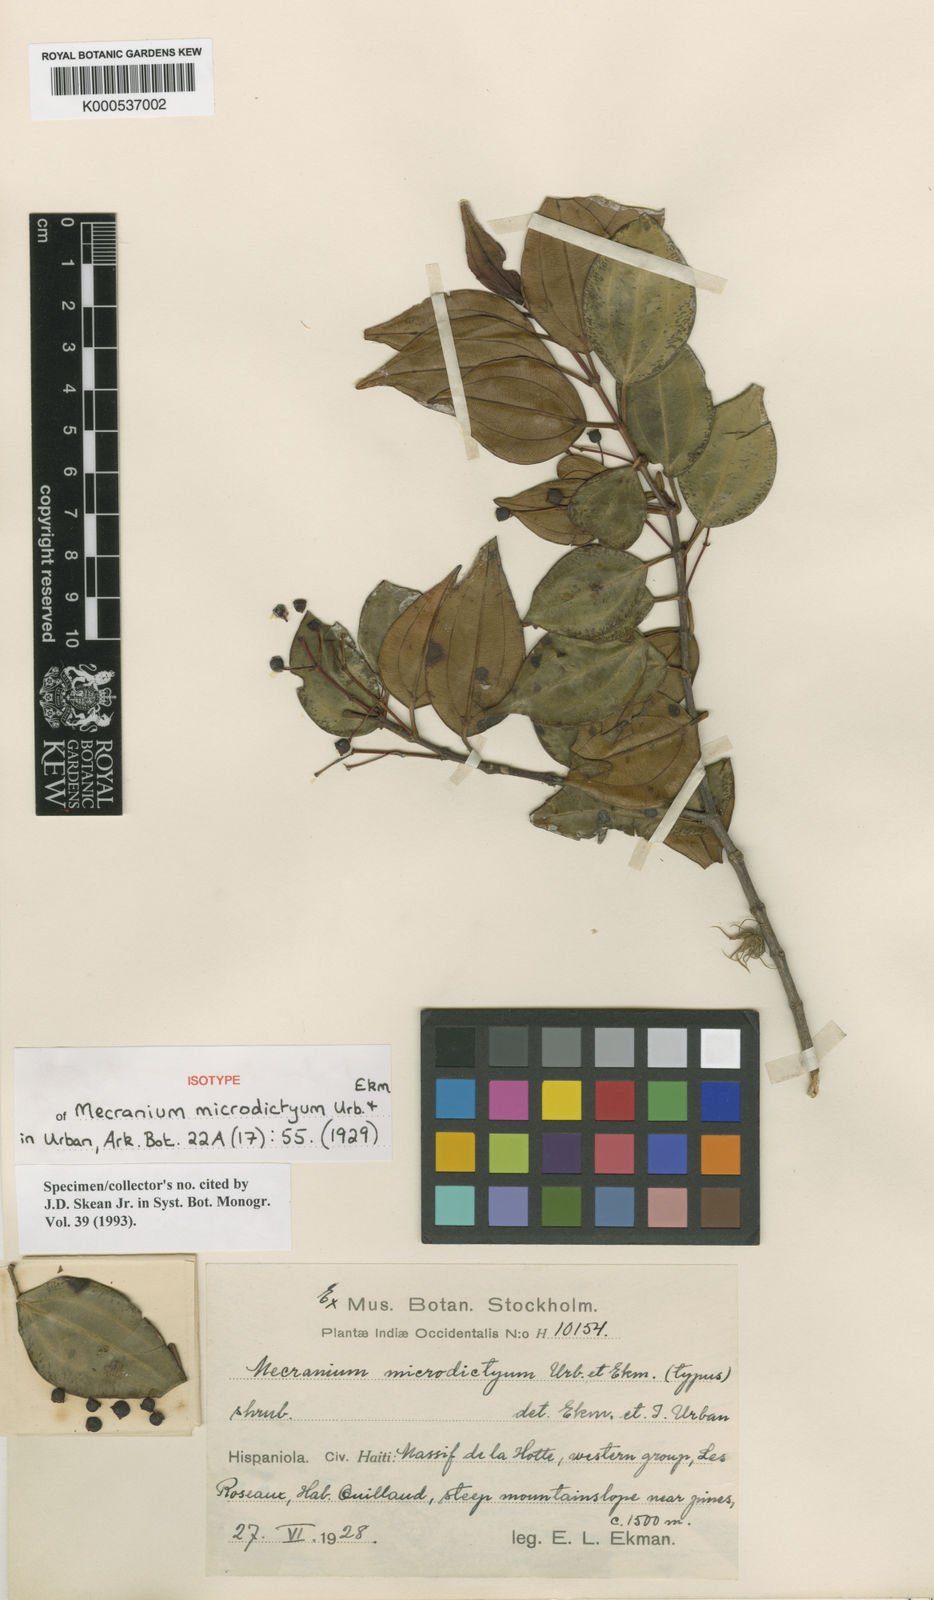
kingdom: Plantae
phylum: Tracheophyta
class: Magnoliopsida
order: Myrtales
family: Melastomataceae
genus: Miconia
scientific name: Miconia microdictya
